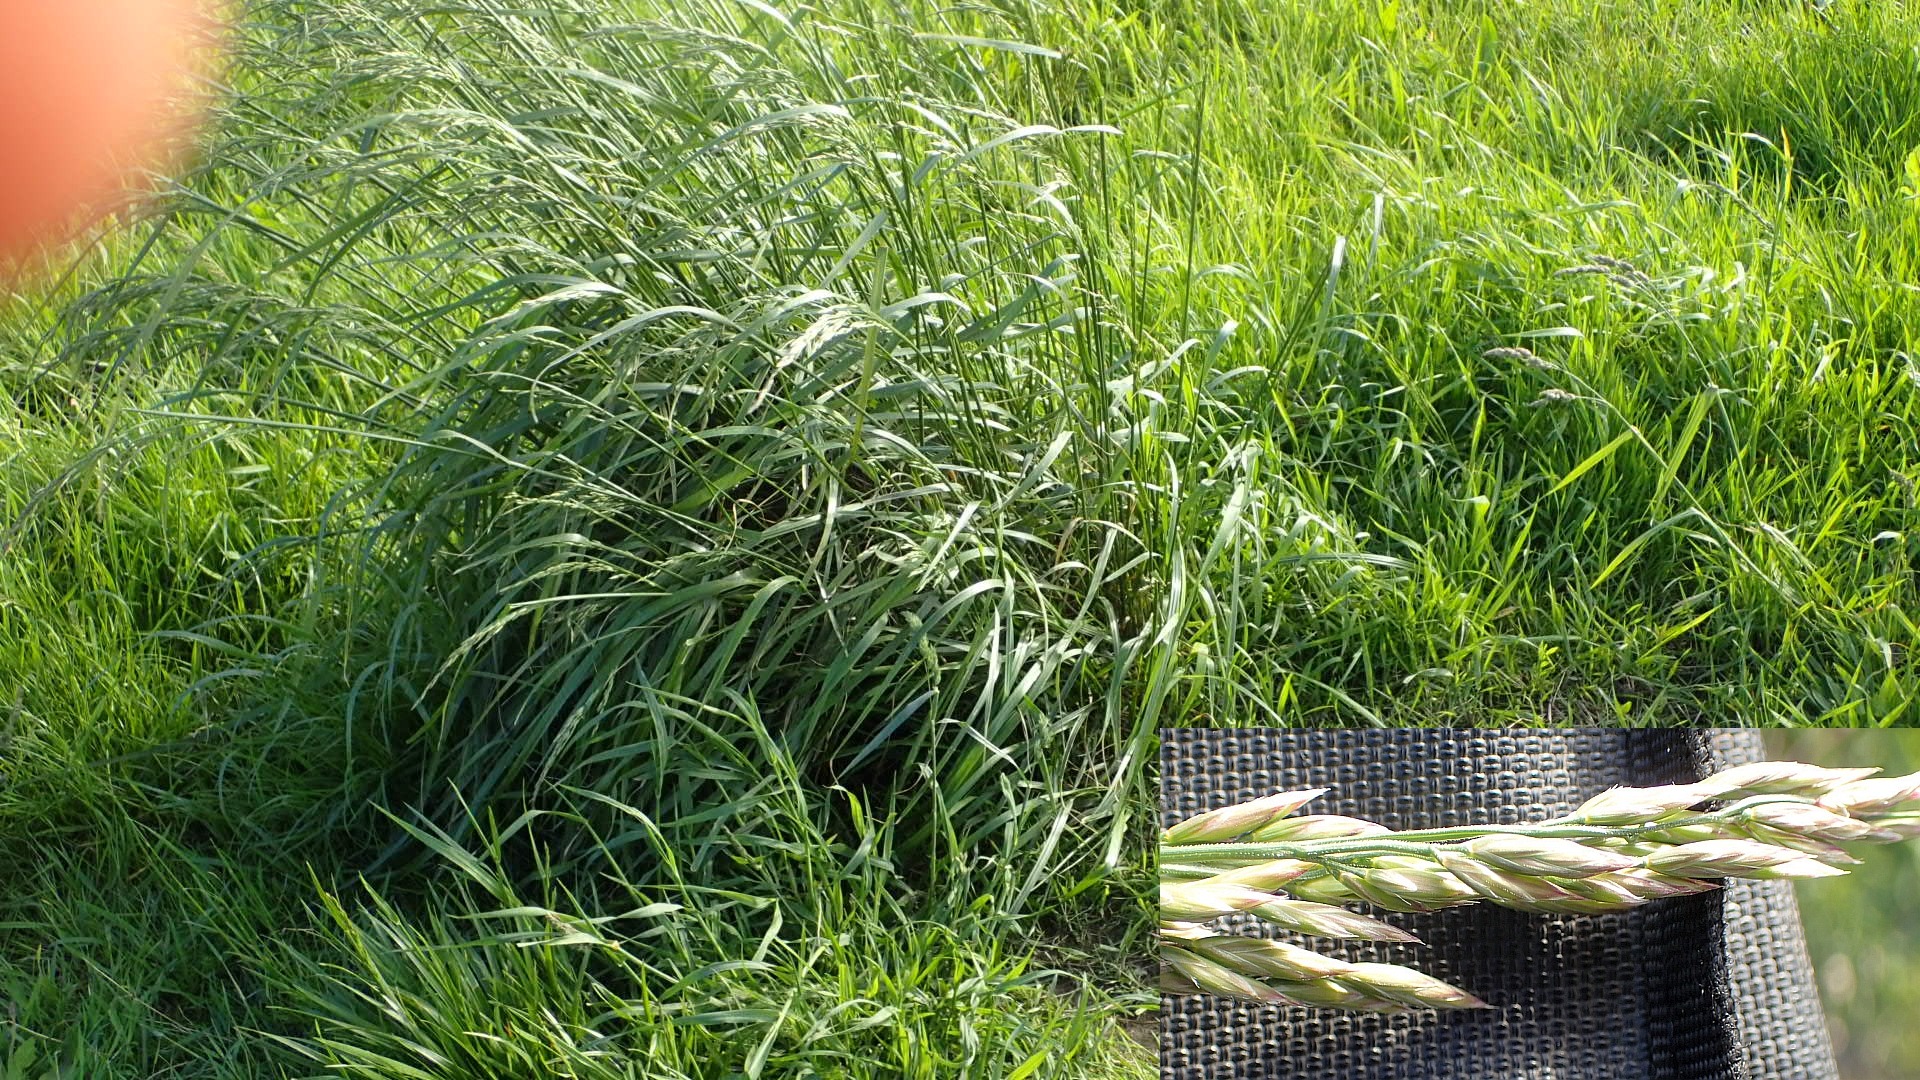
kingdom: Plantae
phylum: Tracheophyta
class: Liliopsida
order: Poales
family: Poaceae
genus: Lolium
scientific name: Lolium arundinaceum
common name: Strand-svingel
